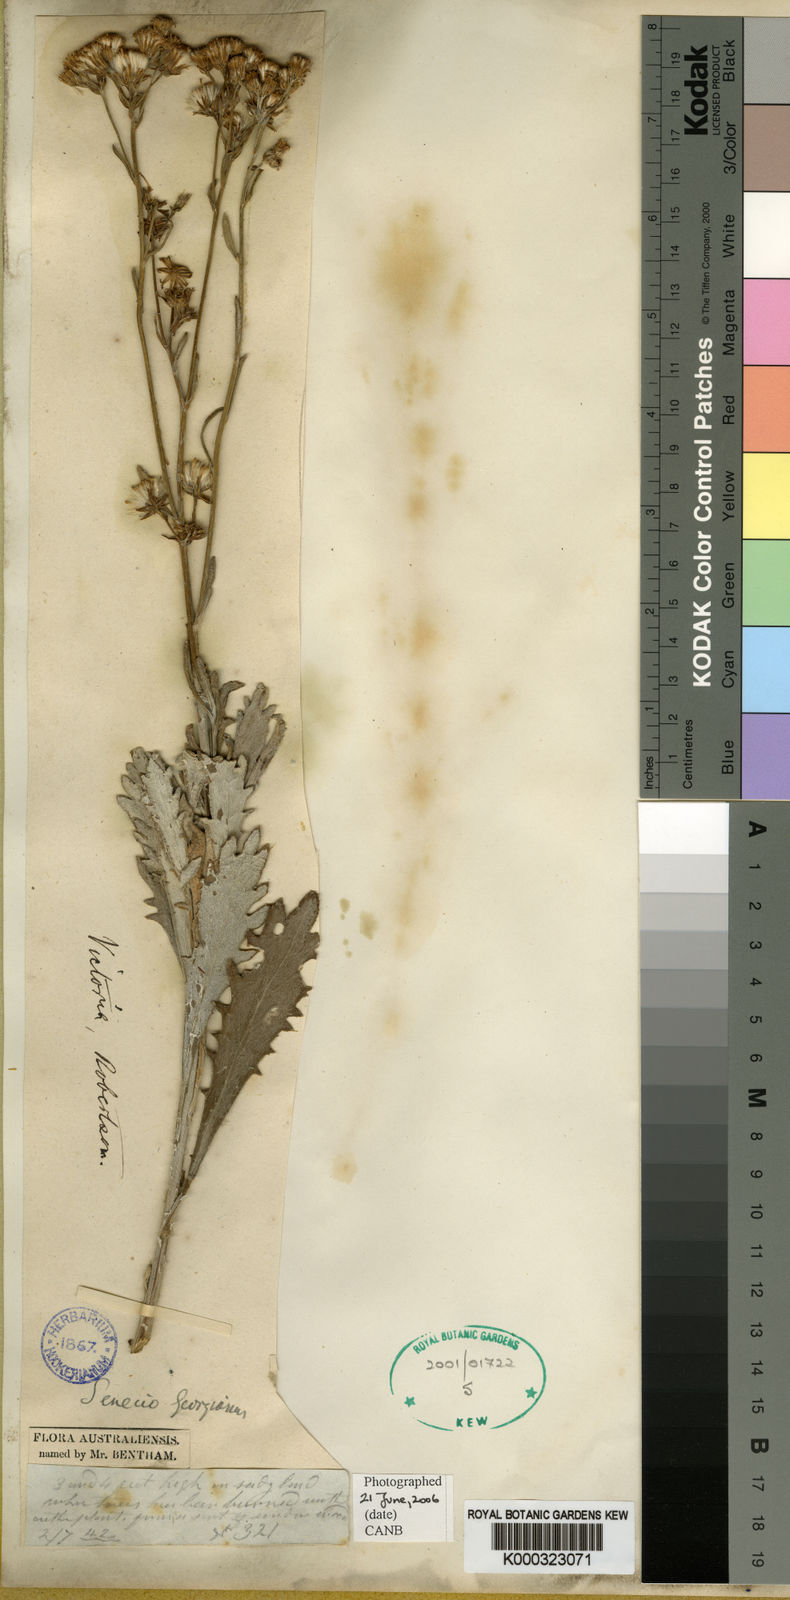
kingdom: Plantae
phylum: Tracheophyta
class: Magnoliopsida
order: Asterales
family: Asteraceae
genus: Senecio
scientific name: Senecio georgianus
